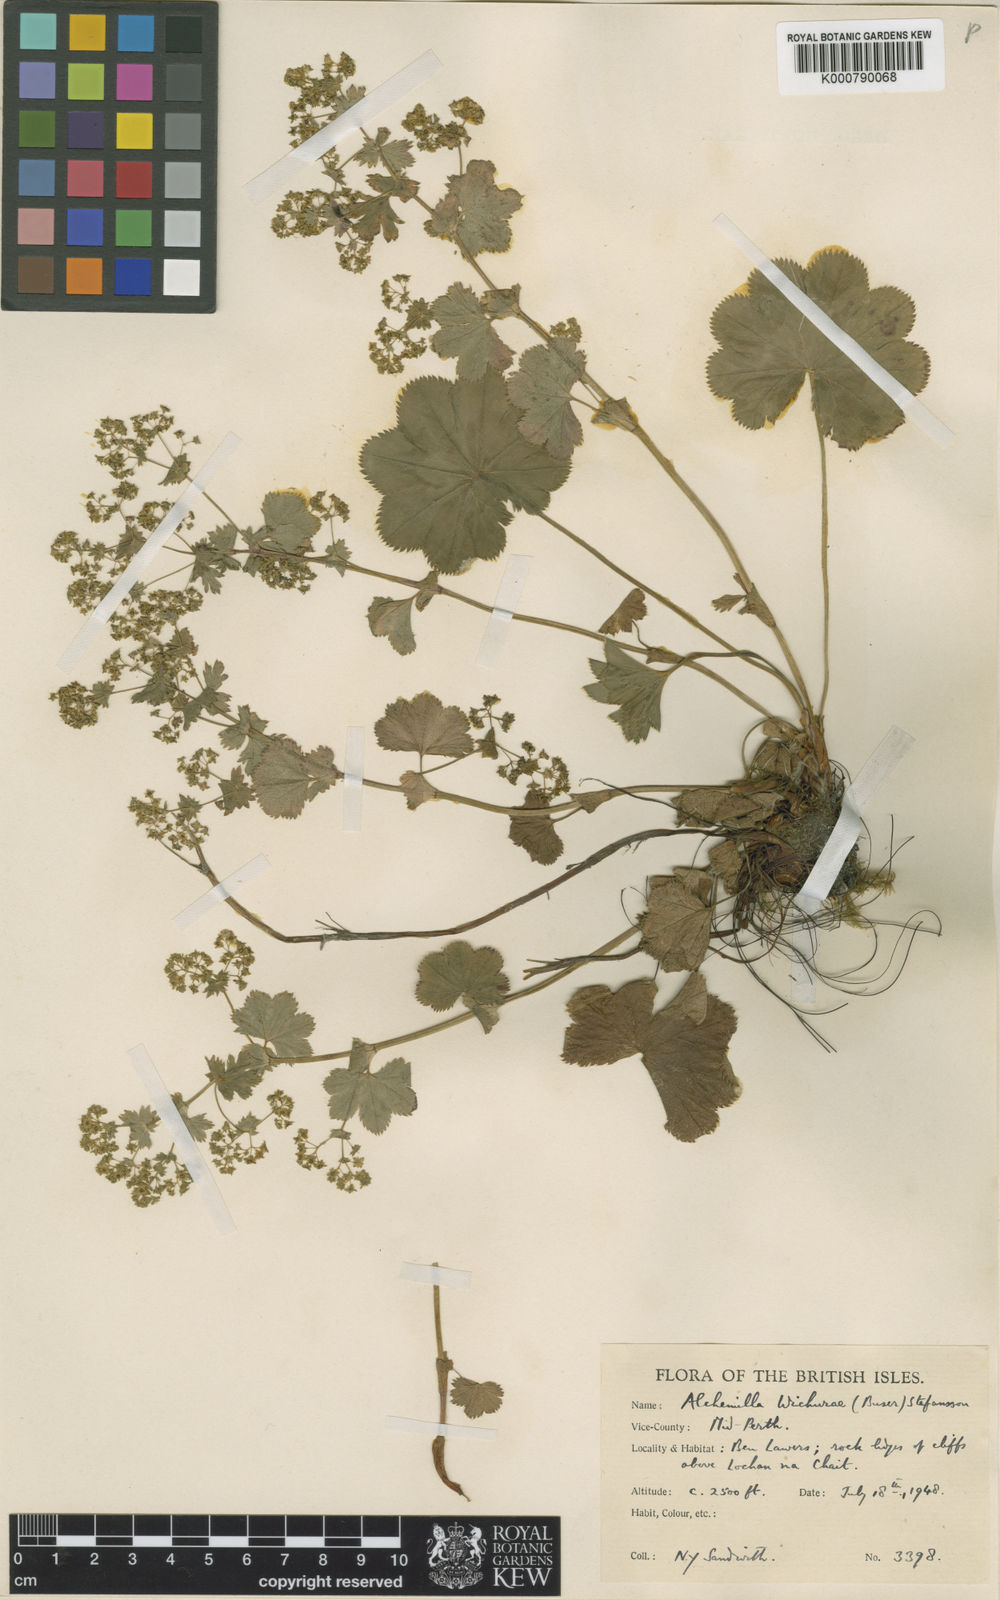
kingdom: Plantae
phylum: Tracheophyta
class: Magnoliopsida
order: Rosales
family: Rosaceae
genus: Alchemilla
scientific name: Alchemilla wichurae
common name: Rock lady's mantle
